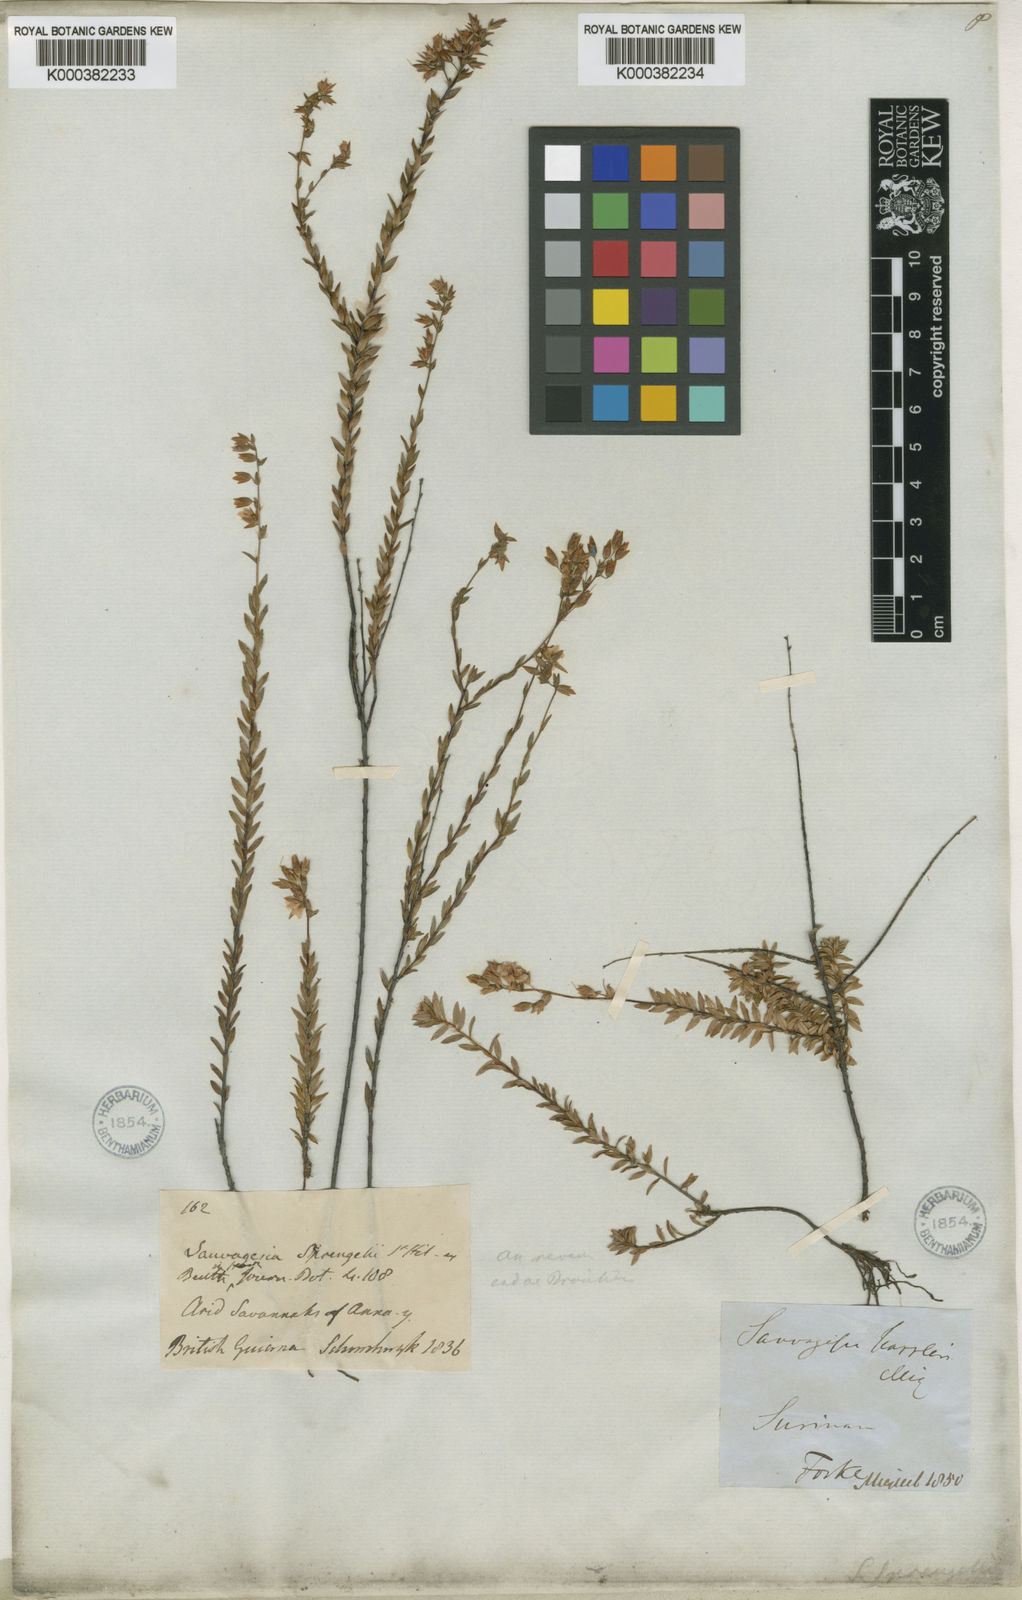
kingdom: Plantae
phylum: Tracheophyta
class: Magnoliopsida
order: Malpighiales
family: Ochnaceae
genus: Sauvagesia
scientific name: Sauvagesia sprengelii
